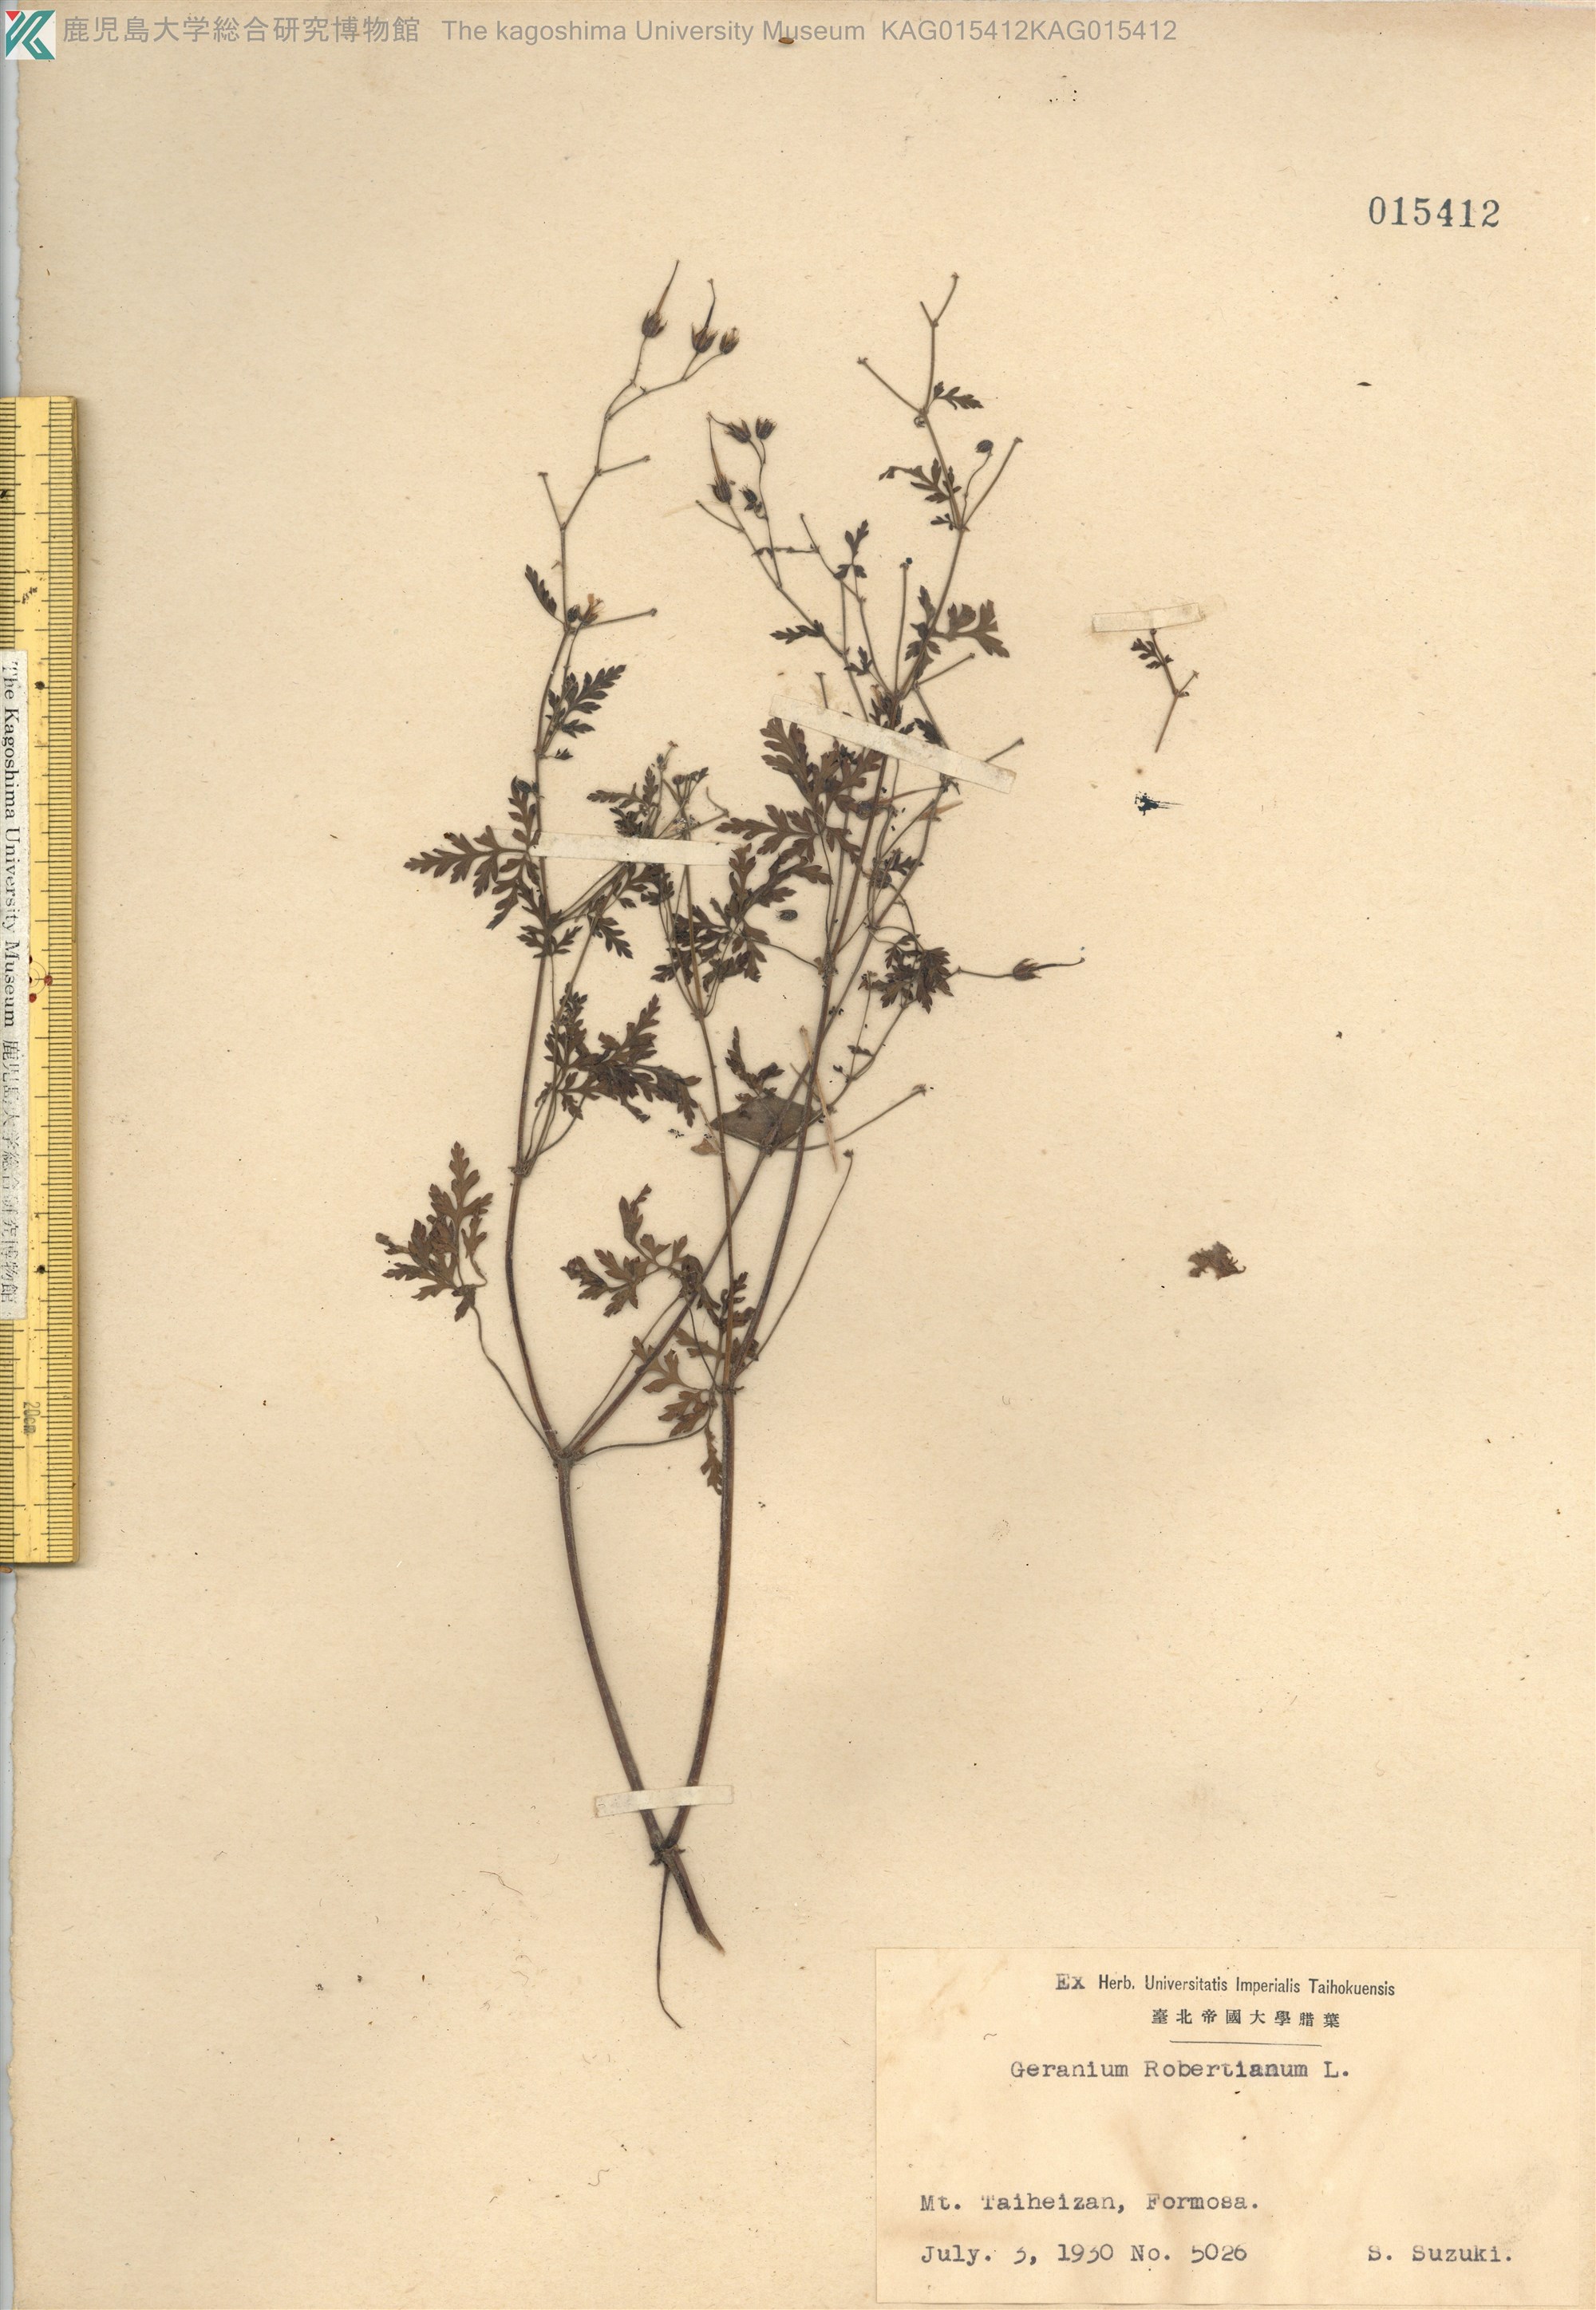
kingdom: Plantae
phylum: Tracheophyta
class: Magnoliopsida
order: Geraniales
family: Geraniaceae
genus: Geranium
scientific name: Geranium robertianum
